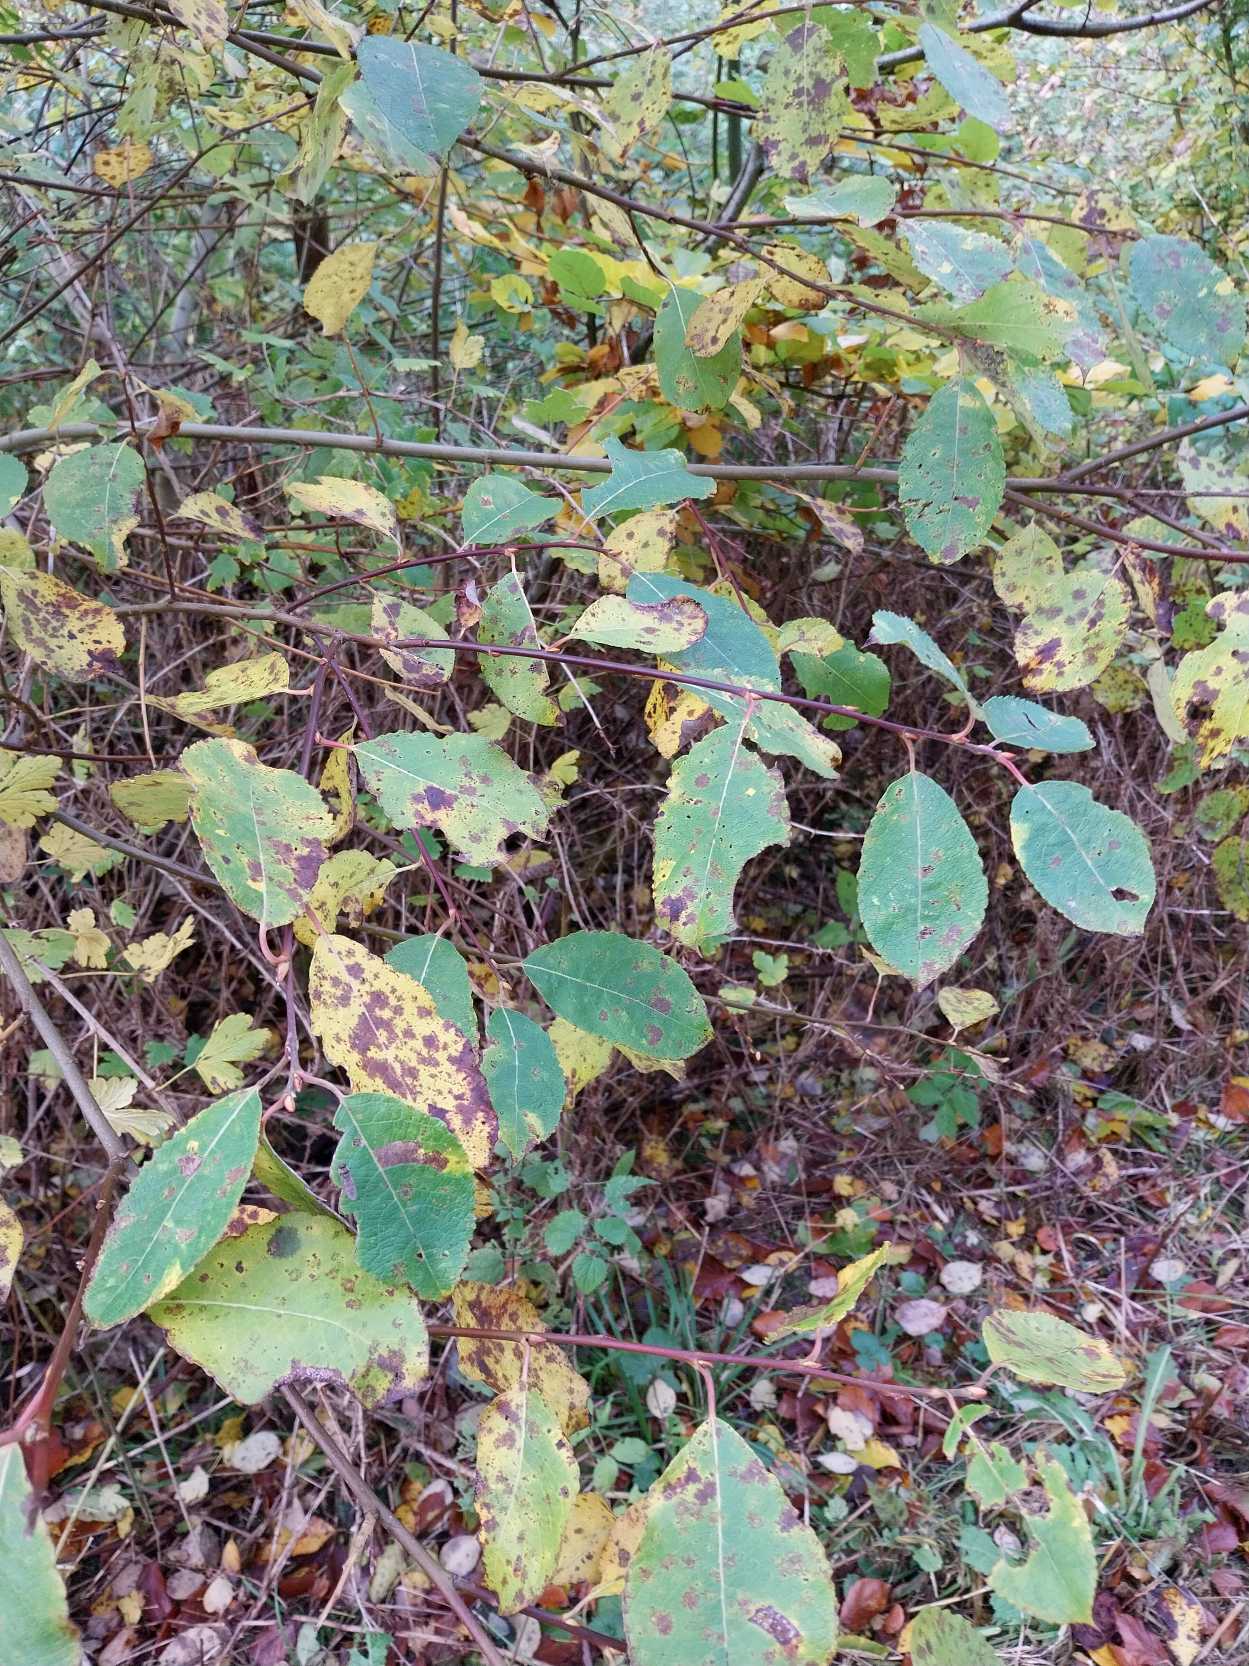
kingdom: Plantae
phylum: Tracheophyta
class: Magnoliopsida
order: Malpighiales
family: Salicaceae
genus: Salix
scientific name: Salix caprea
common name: Selje-pil
